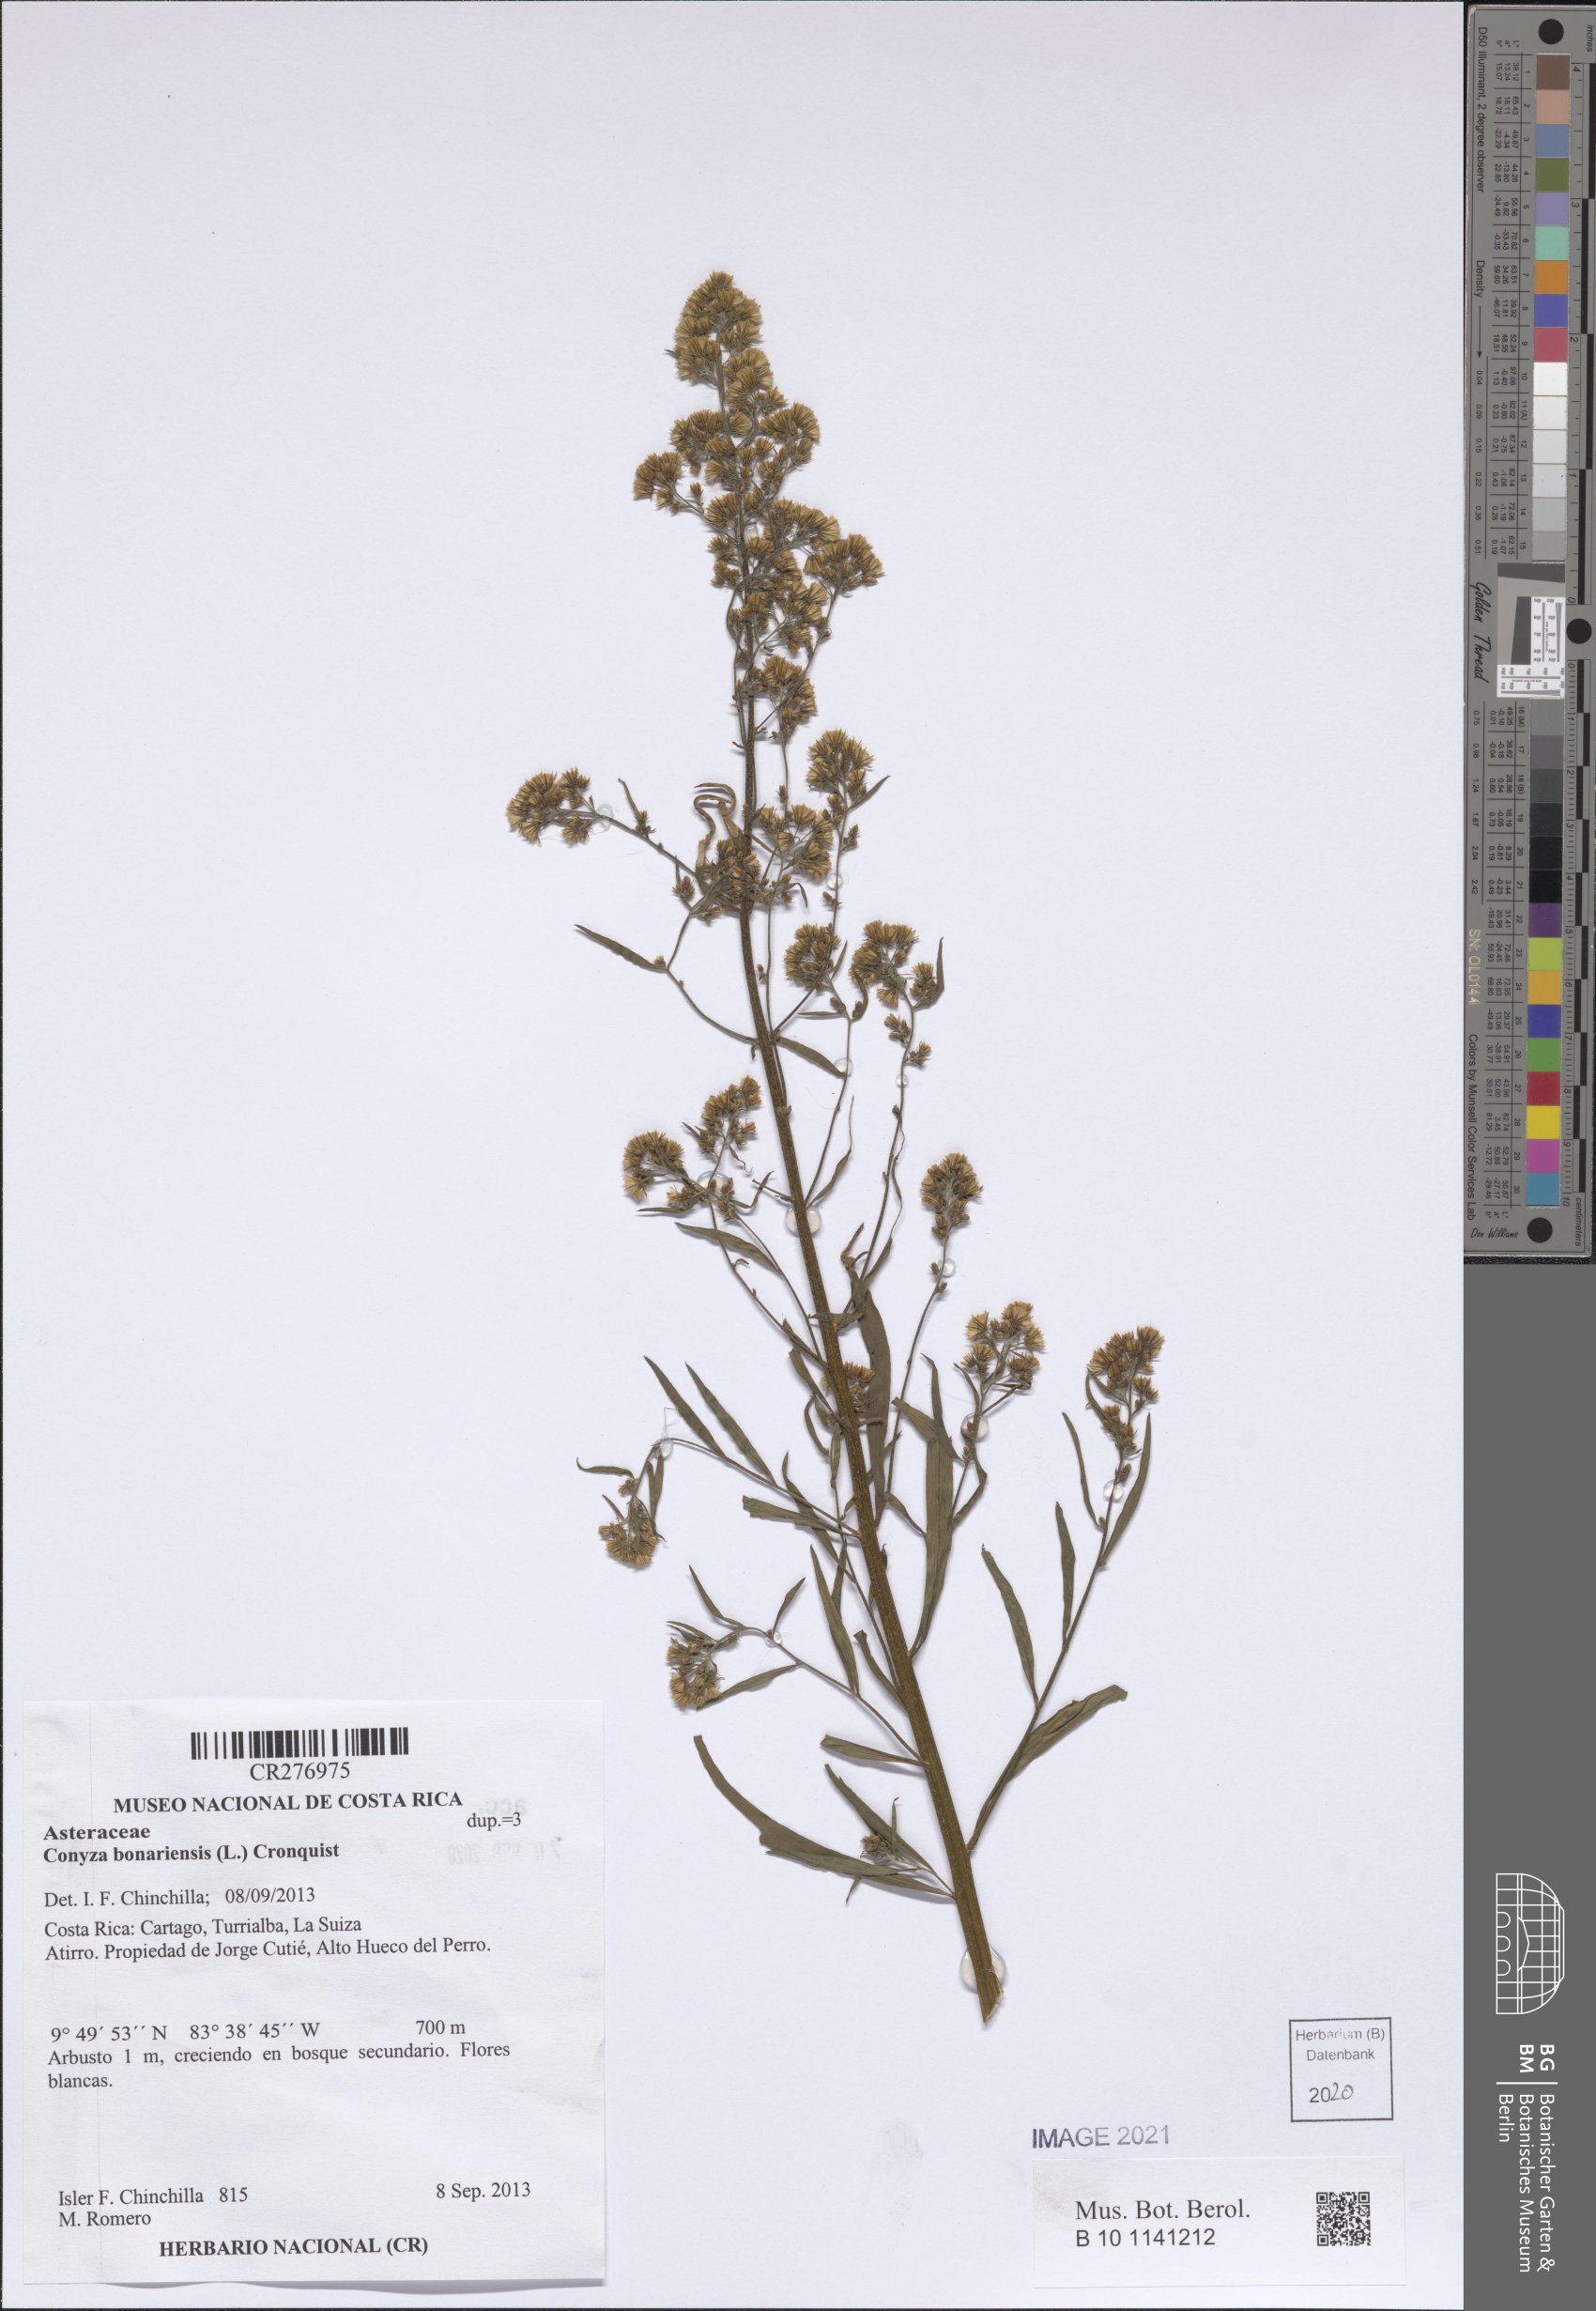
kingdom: Plantae
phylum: Tracheophyta
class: Magnoliopsida
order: Asterales
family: Asteraceae
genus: Erigeron
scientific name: Erigeron bonariensis
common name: Argentine fleabane
